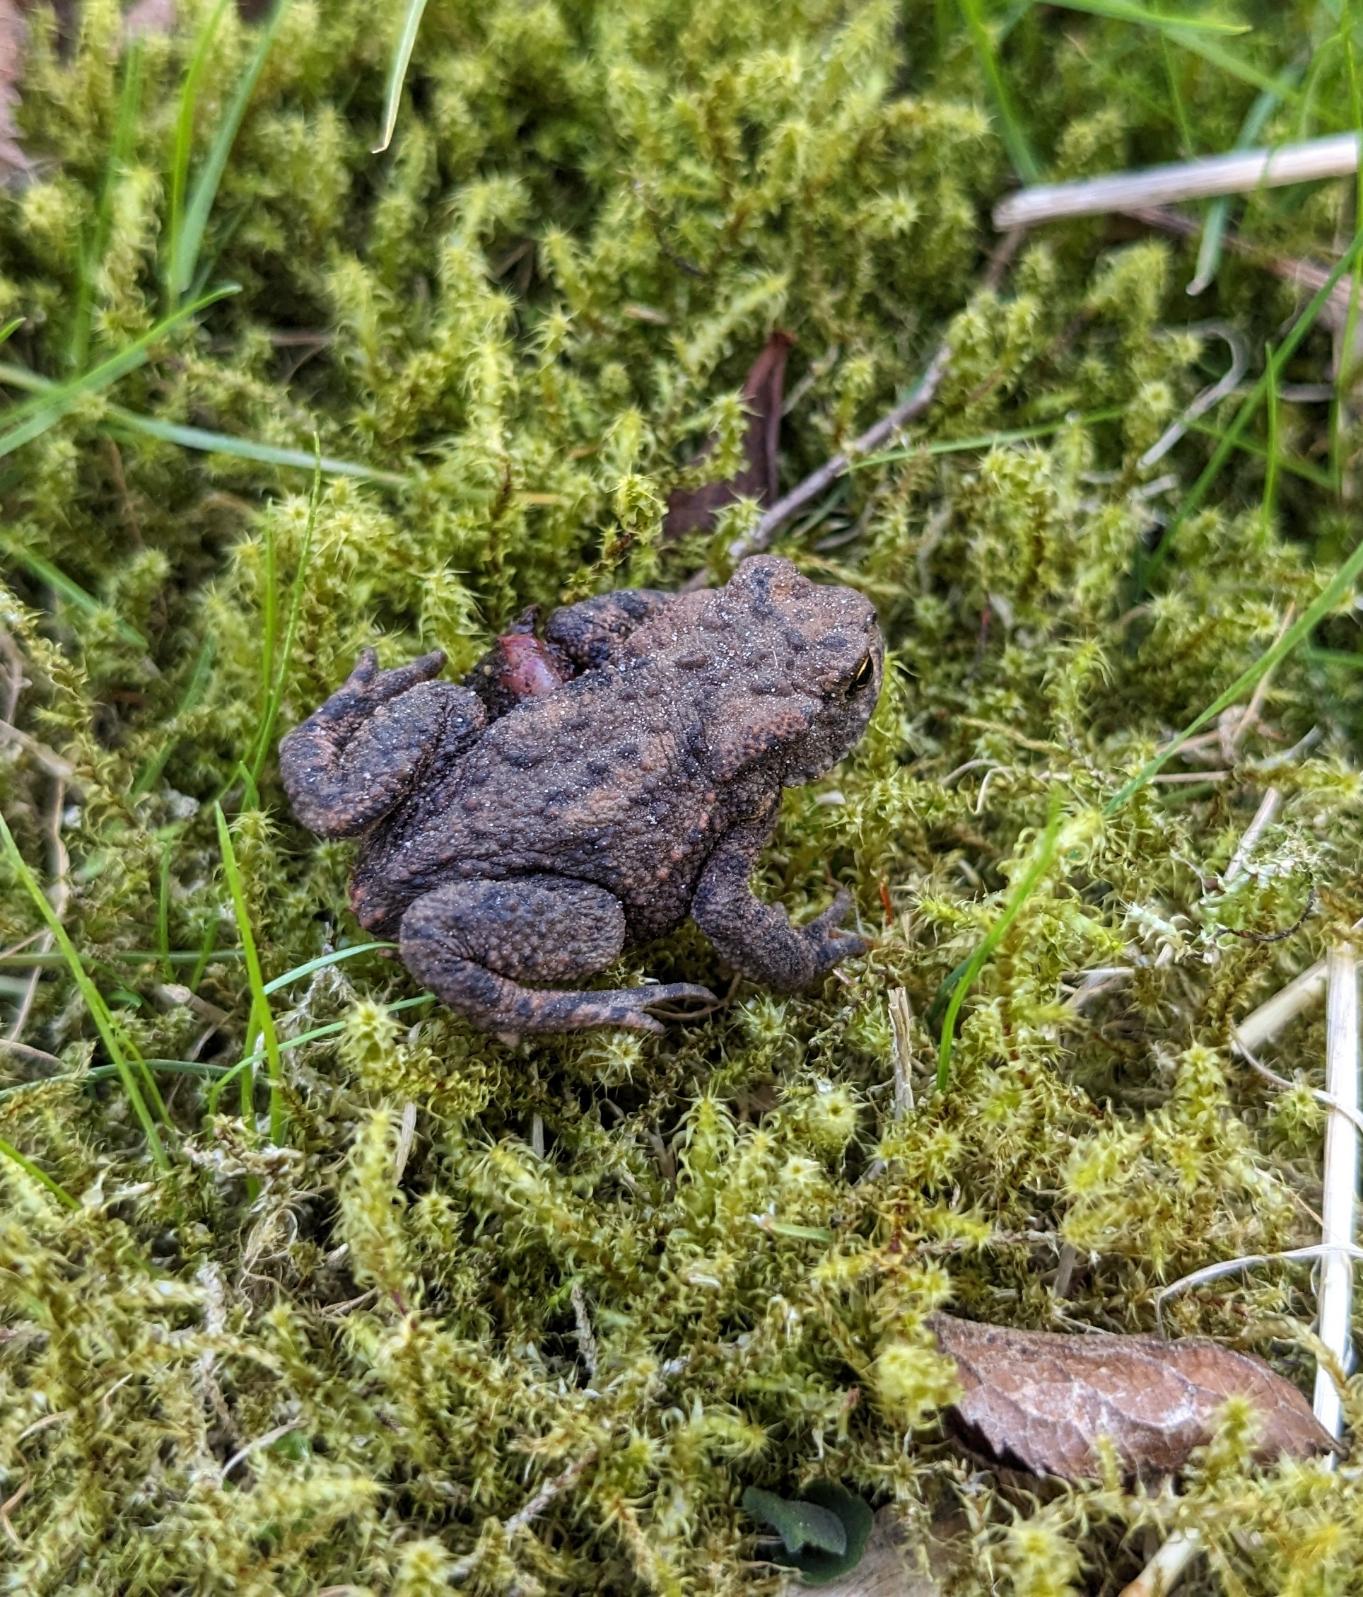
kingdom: Animalia
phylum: Chordata
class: Amphibia
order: Anura
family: Bufonidae
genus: Bufo
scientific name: Bufo bufo
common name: Skrubtudse
